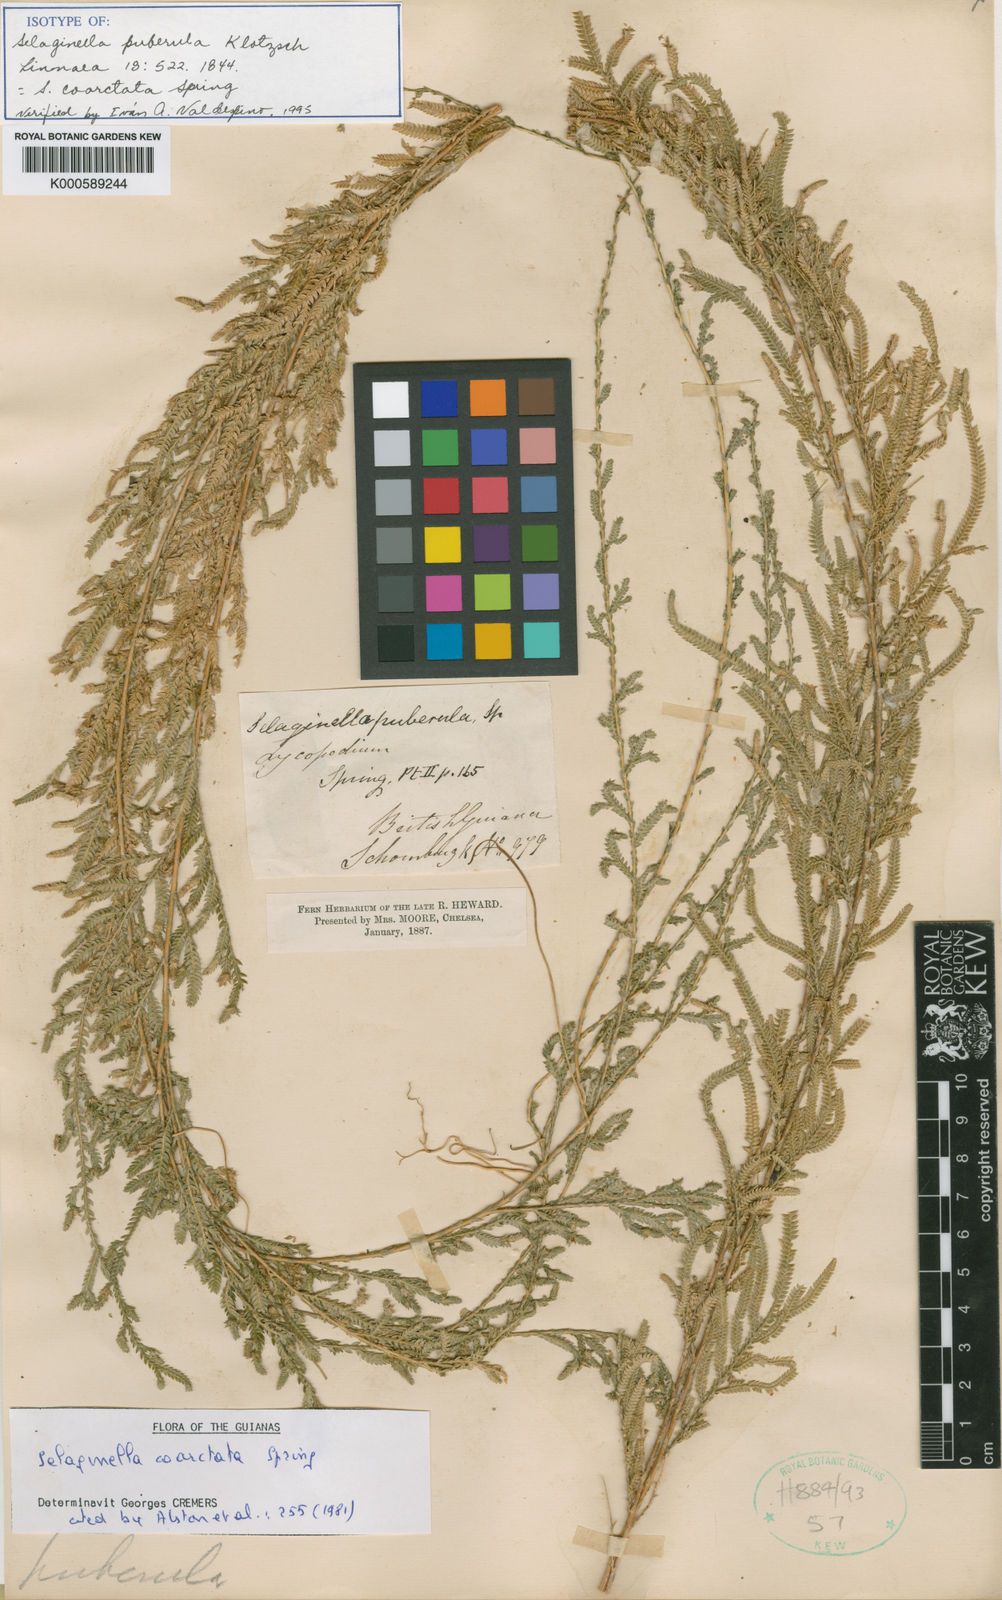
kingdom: Plantae
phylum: Tracheophyta
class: Lycopodiopsida
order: Selaginellales
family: Selaginellaceae
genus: Selaginella
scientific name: Selaginella coarctata
